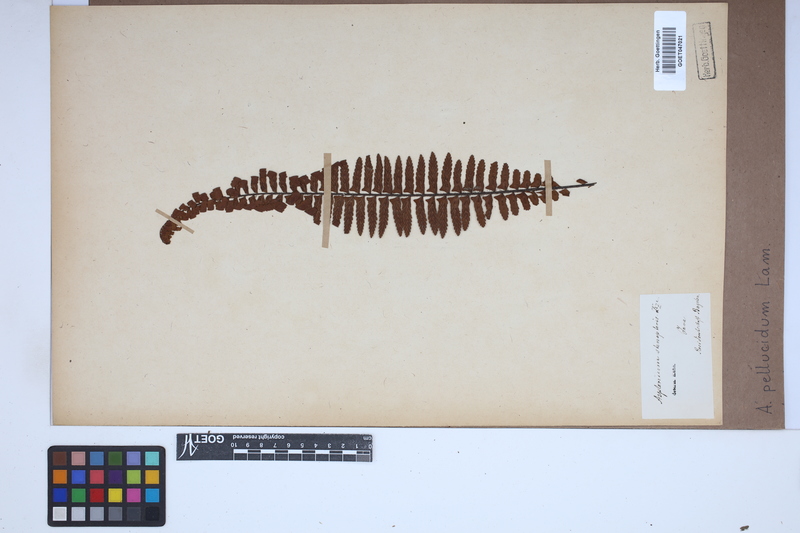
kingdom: Plantae
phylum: Tracheophyta
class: Polypodiopsida
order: Polypodiales
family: Aspleniaceae
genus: Asplenium
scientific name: Asplenium pellucidum
